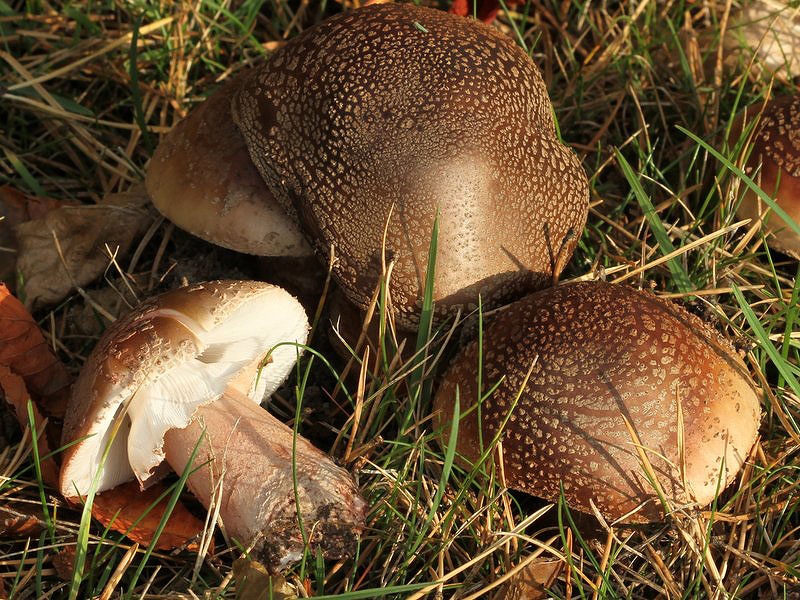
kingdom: Fungi
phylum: Basidiomycota
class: Agaricomycetes
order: Agaricales
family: Amanitaceae
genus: Amanita
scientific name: Amanita rubescens
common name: rødmende fluesvamp
